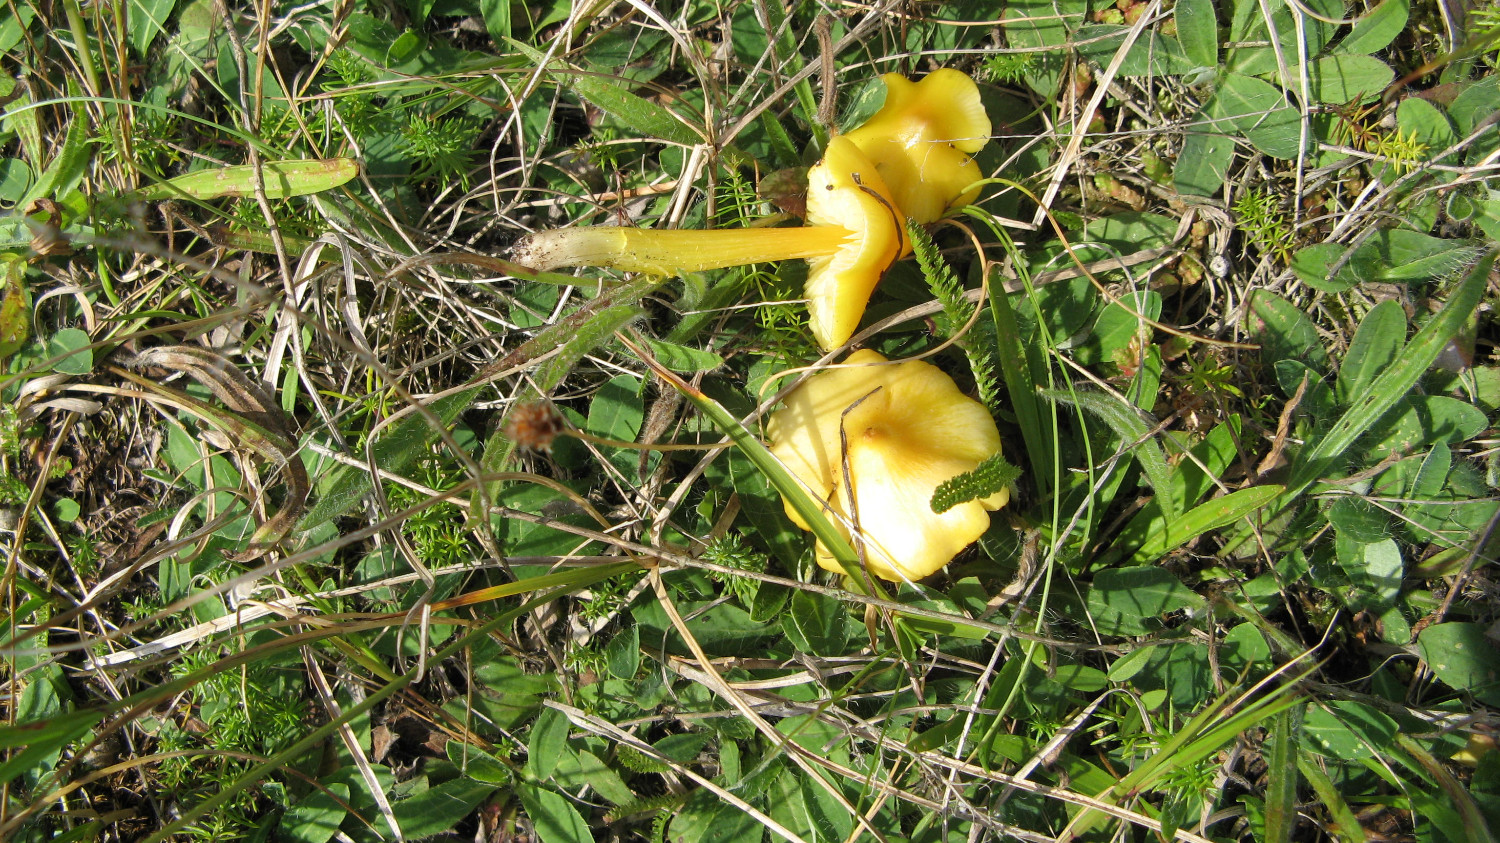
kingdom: Fungi
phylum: Basidiomycota
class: Agaricomycetes
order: Agaricales
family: Hygrophoraceae
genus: Hygrocybe
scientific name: Hygrocybe acutoconica
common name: spidspuklet vokshat
